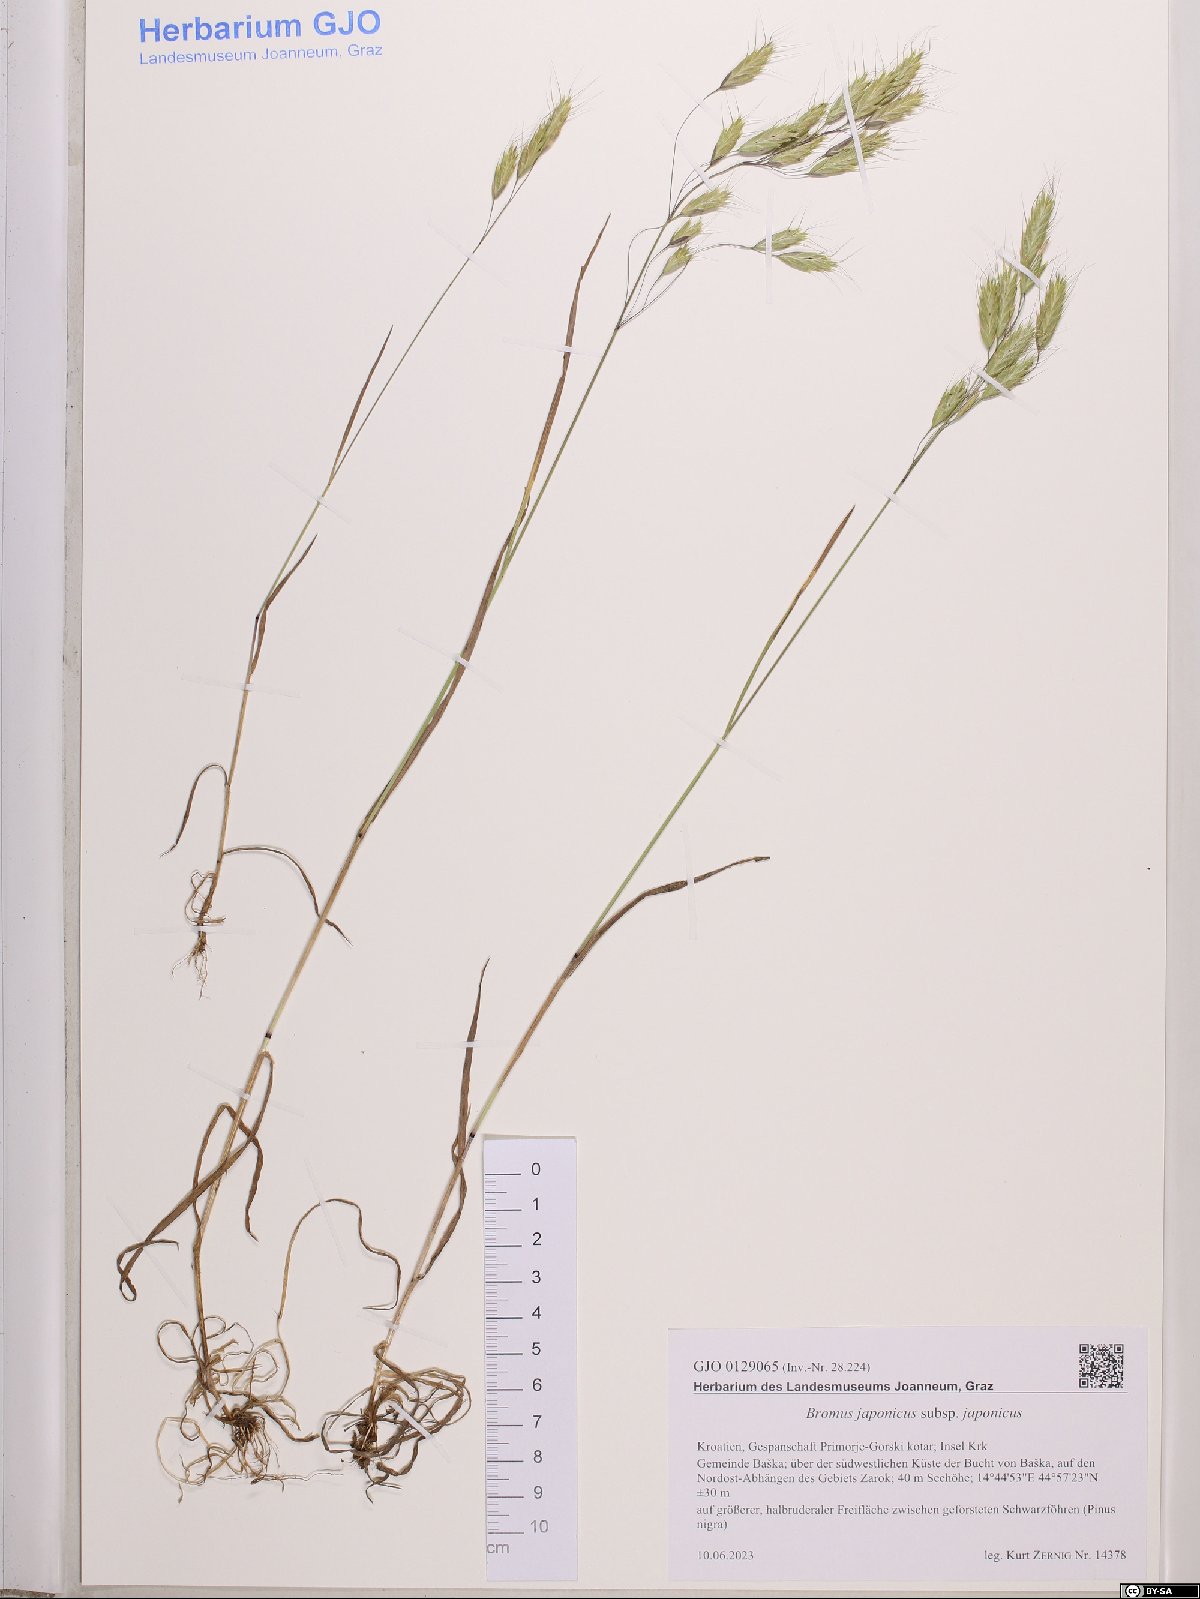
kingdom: Plantae
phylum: Tracheophyta
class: Liliopsida
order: Poales
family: Poaceae
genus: Bromus
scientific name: Bromus japonicus
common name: Japanese brome
